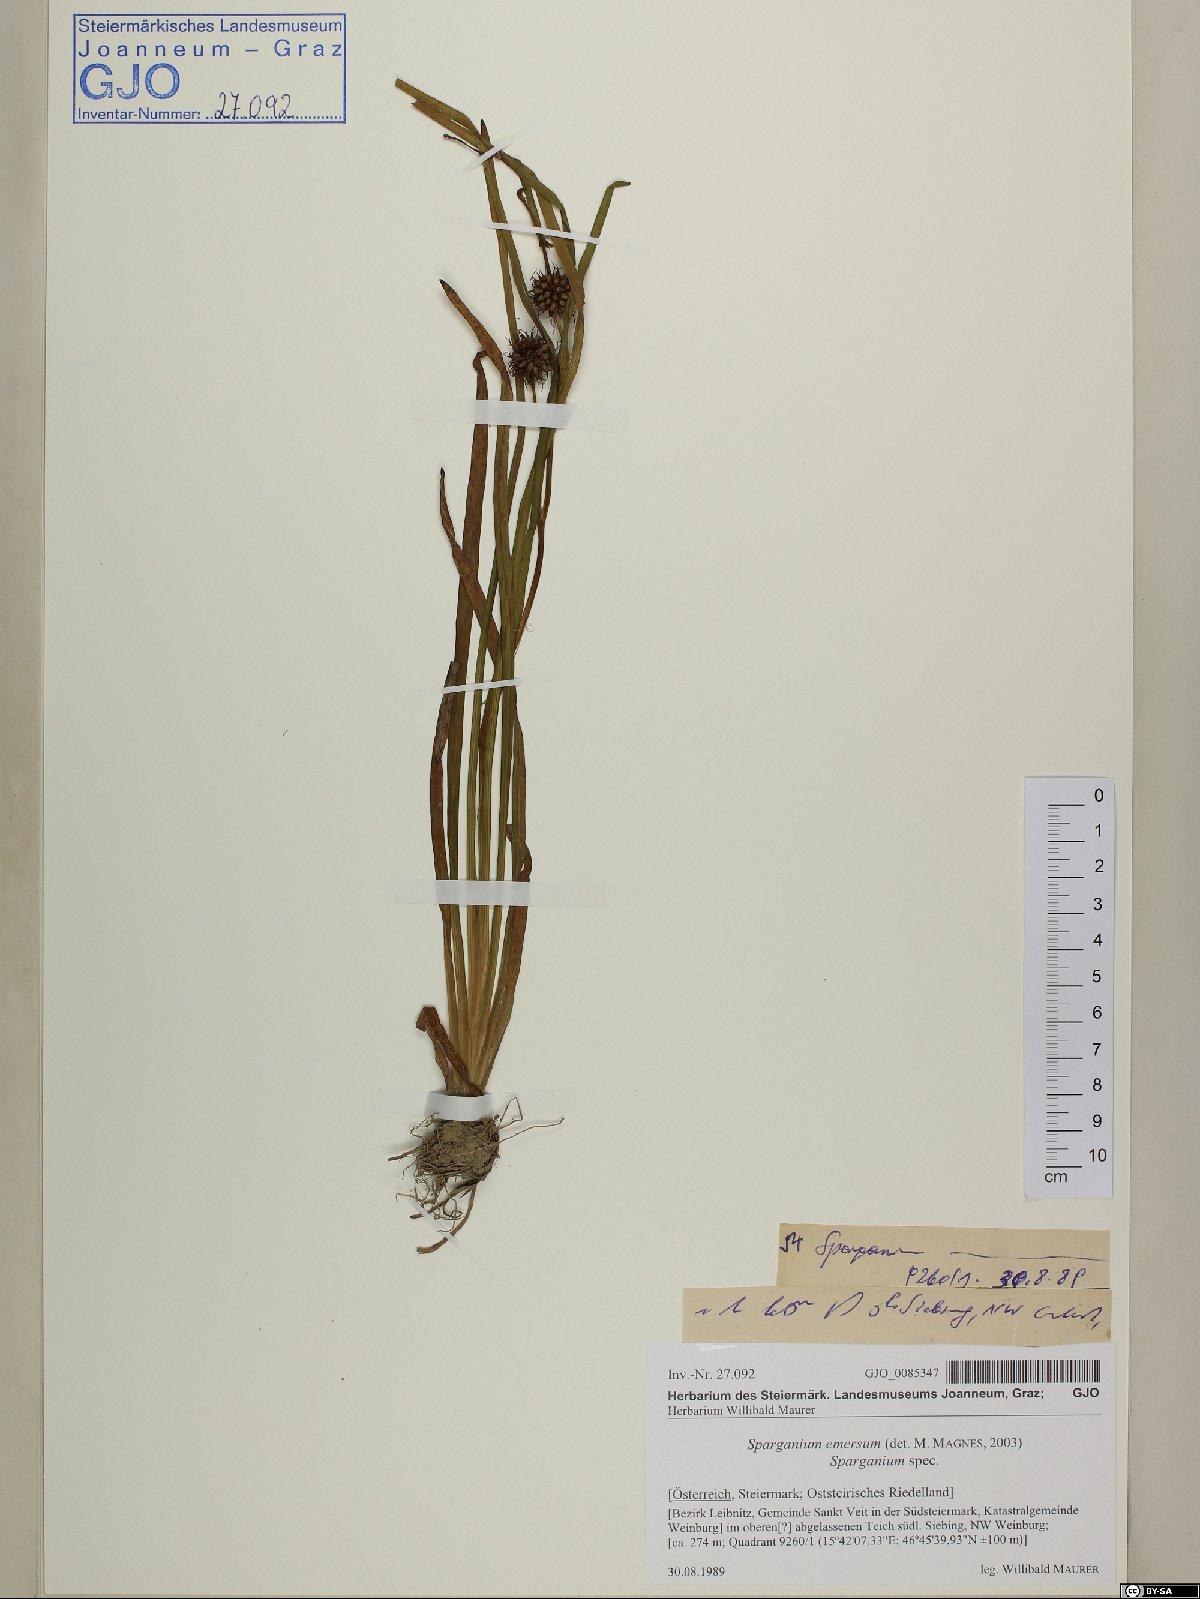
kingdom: Plantae
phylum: Tracheophyta
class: Liliopsida
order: Poales
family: Typhaceae
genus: Sparganium
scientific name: Sparganium emersum
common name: Unbranched bur-reed
